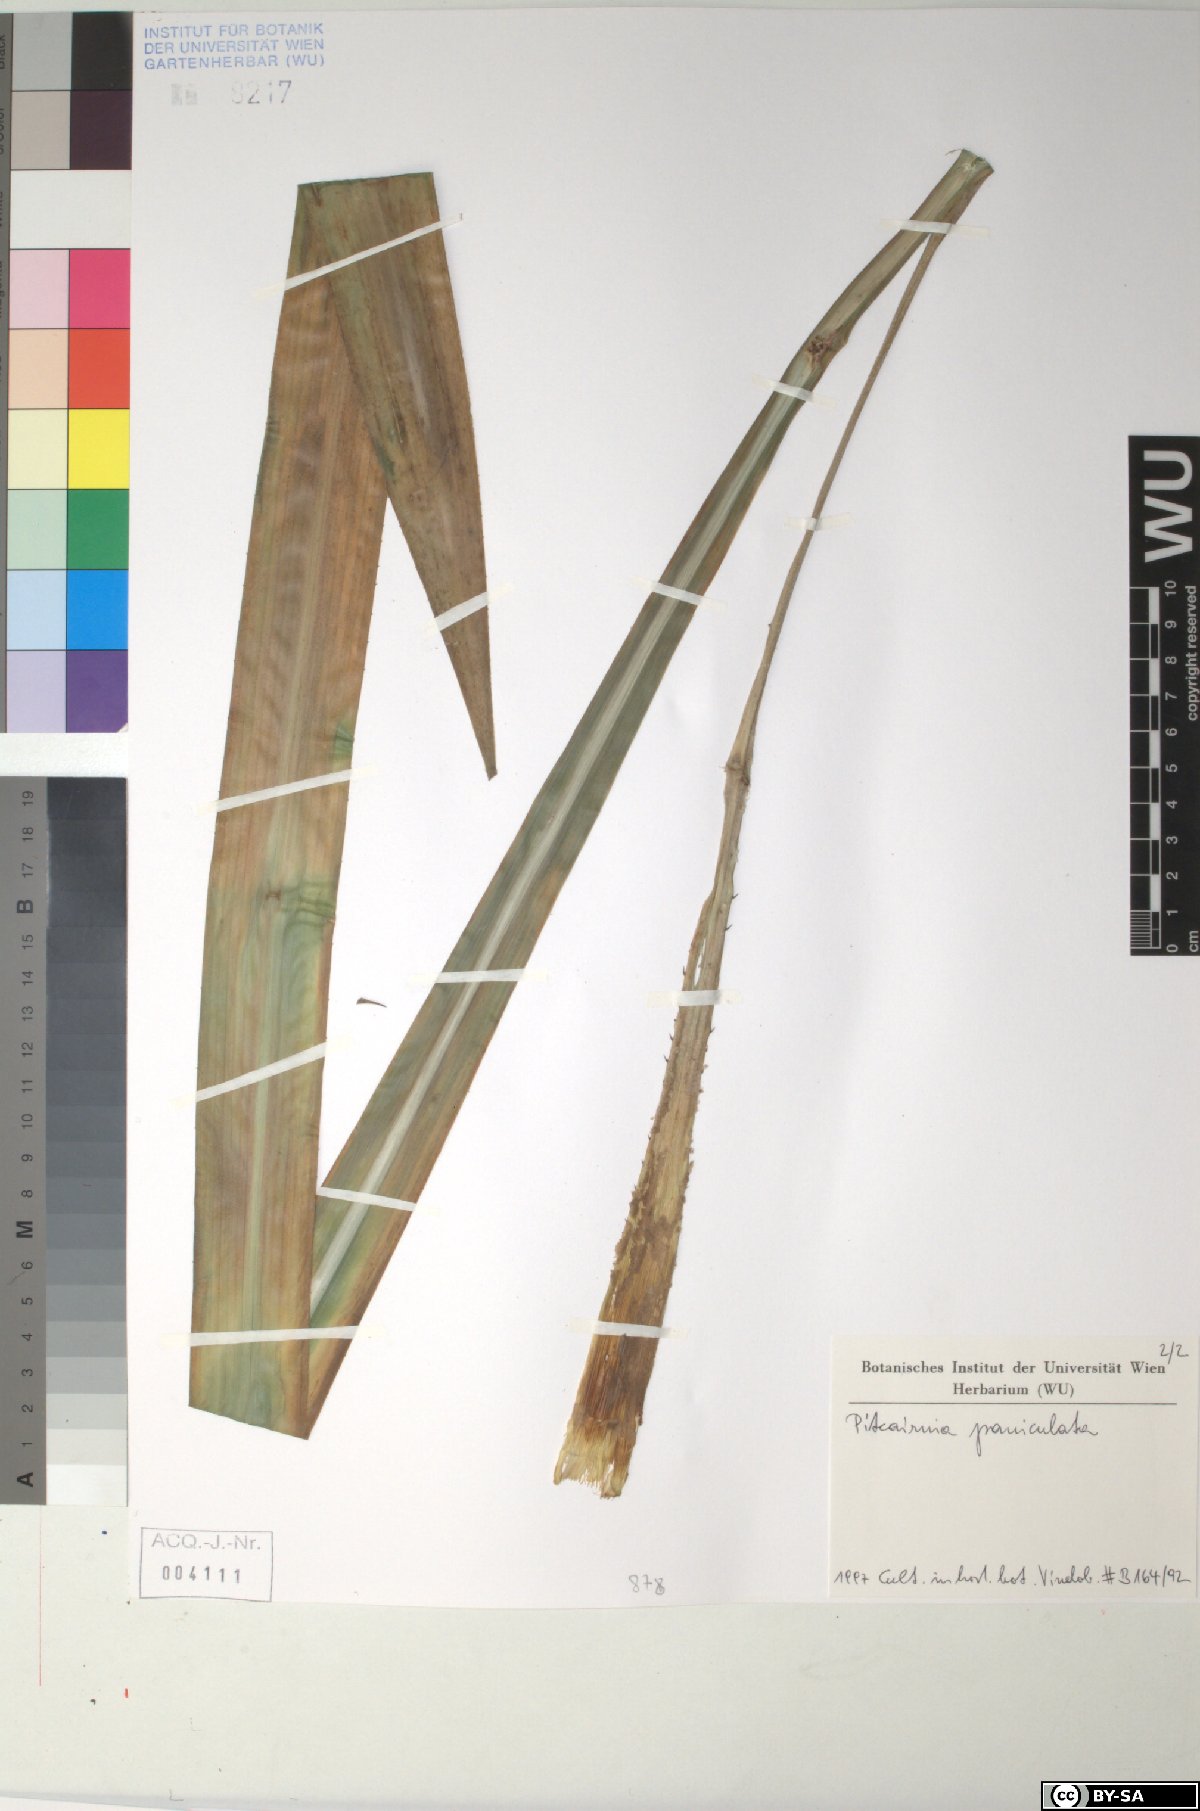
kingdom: Plantae
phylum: Tracheophyta
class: Liliopsida
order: Poales
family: Bromeliaceae
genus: Pitcairnia
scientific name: Pitcairnia paniculata
